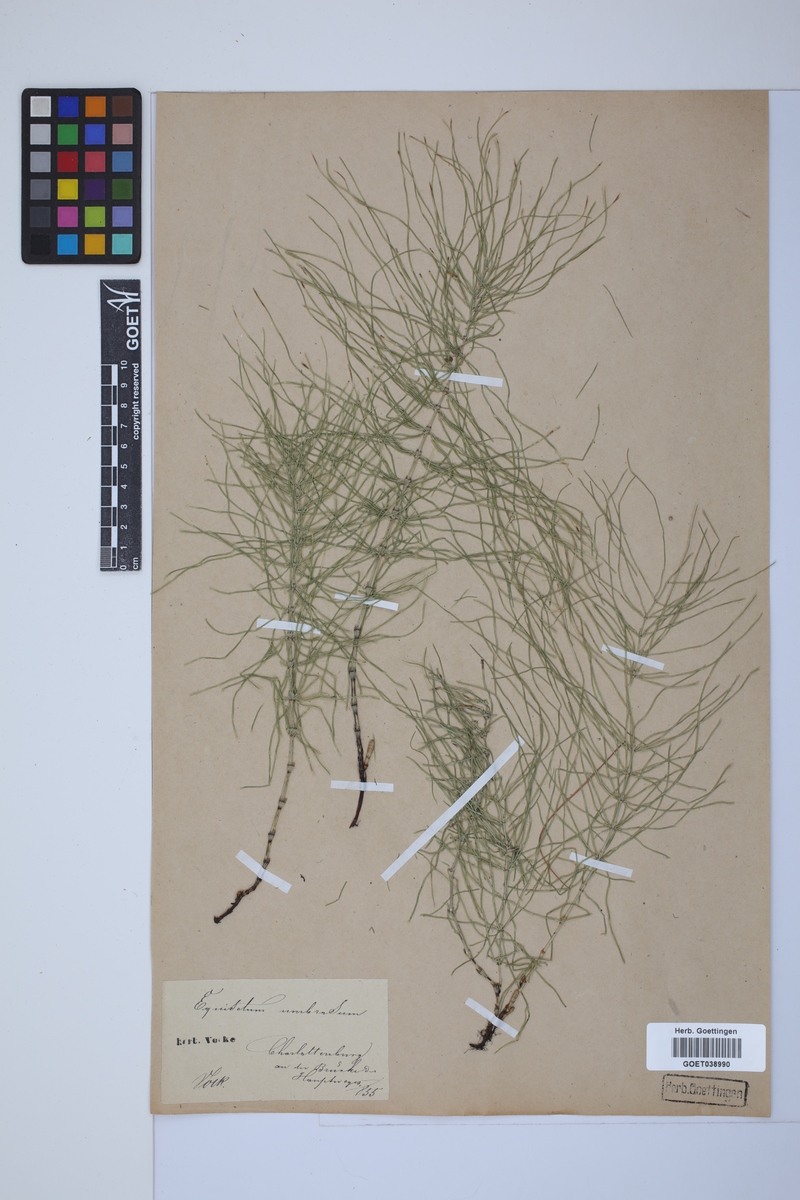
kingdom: Plantae
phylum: Tracheophyta
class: Polypodiopsida
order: Equisetales
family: Equisetaceae
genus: Equisetum
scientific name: Equisetum pratense
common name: Meadow horsetail
